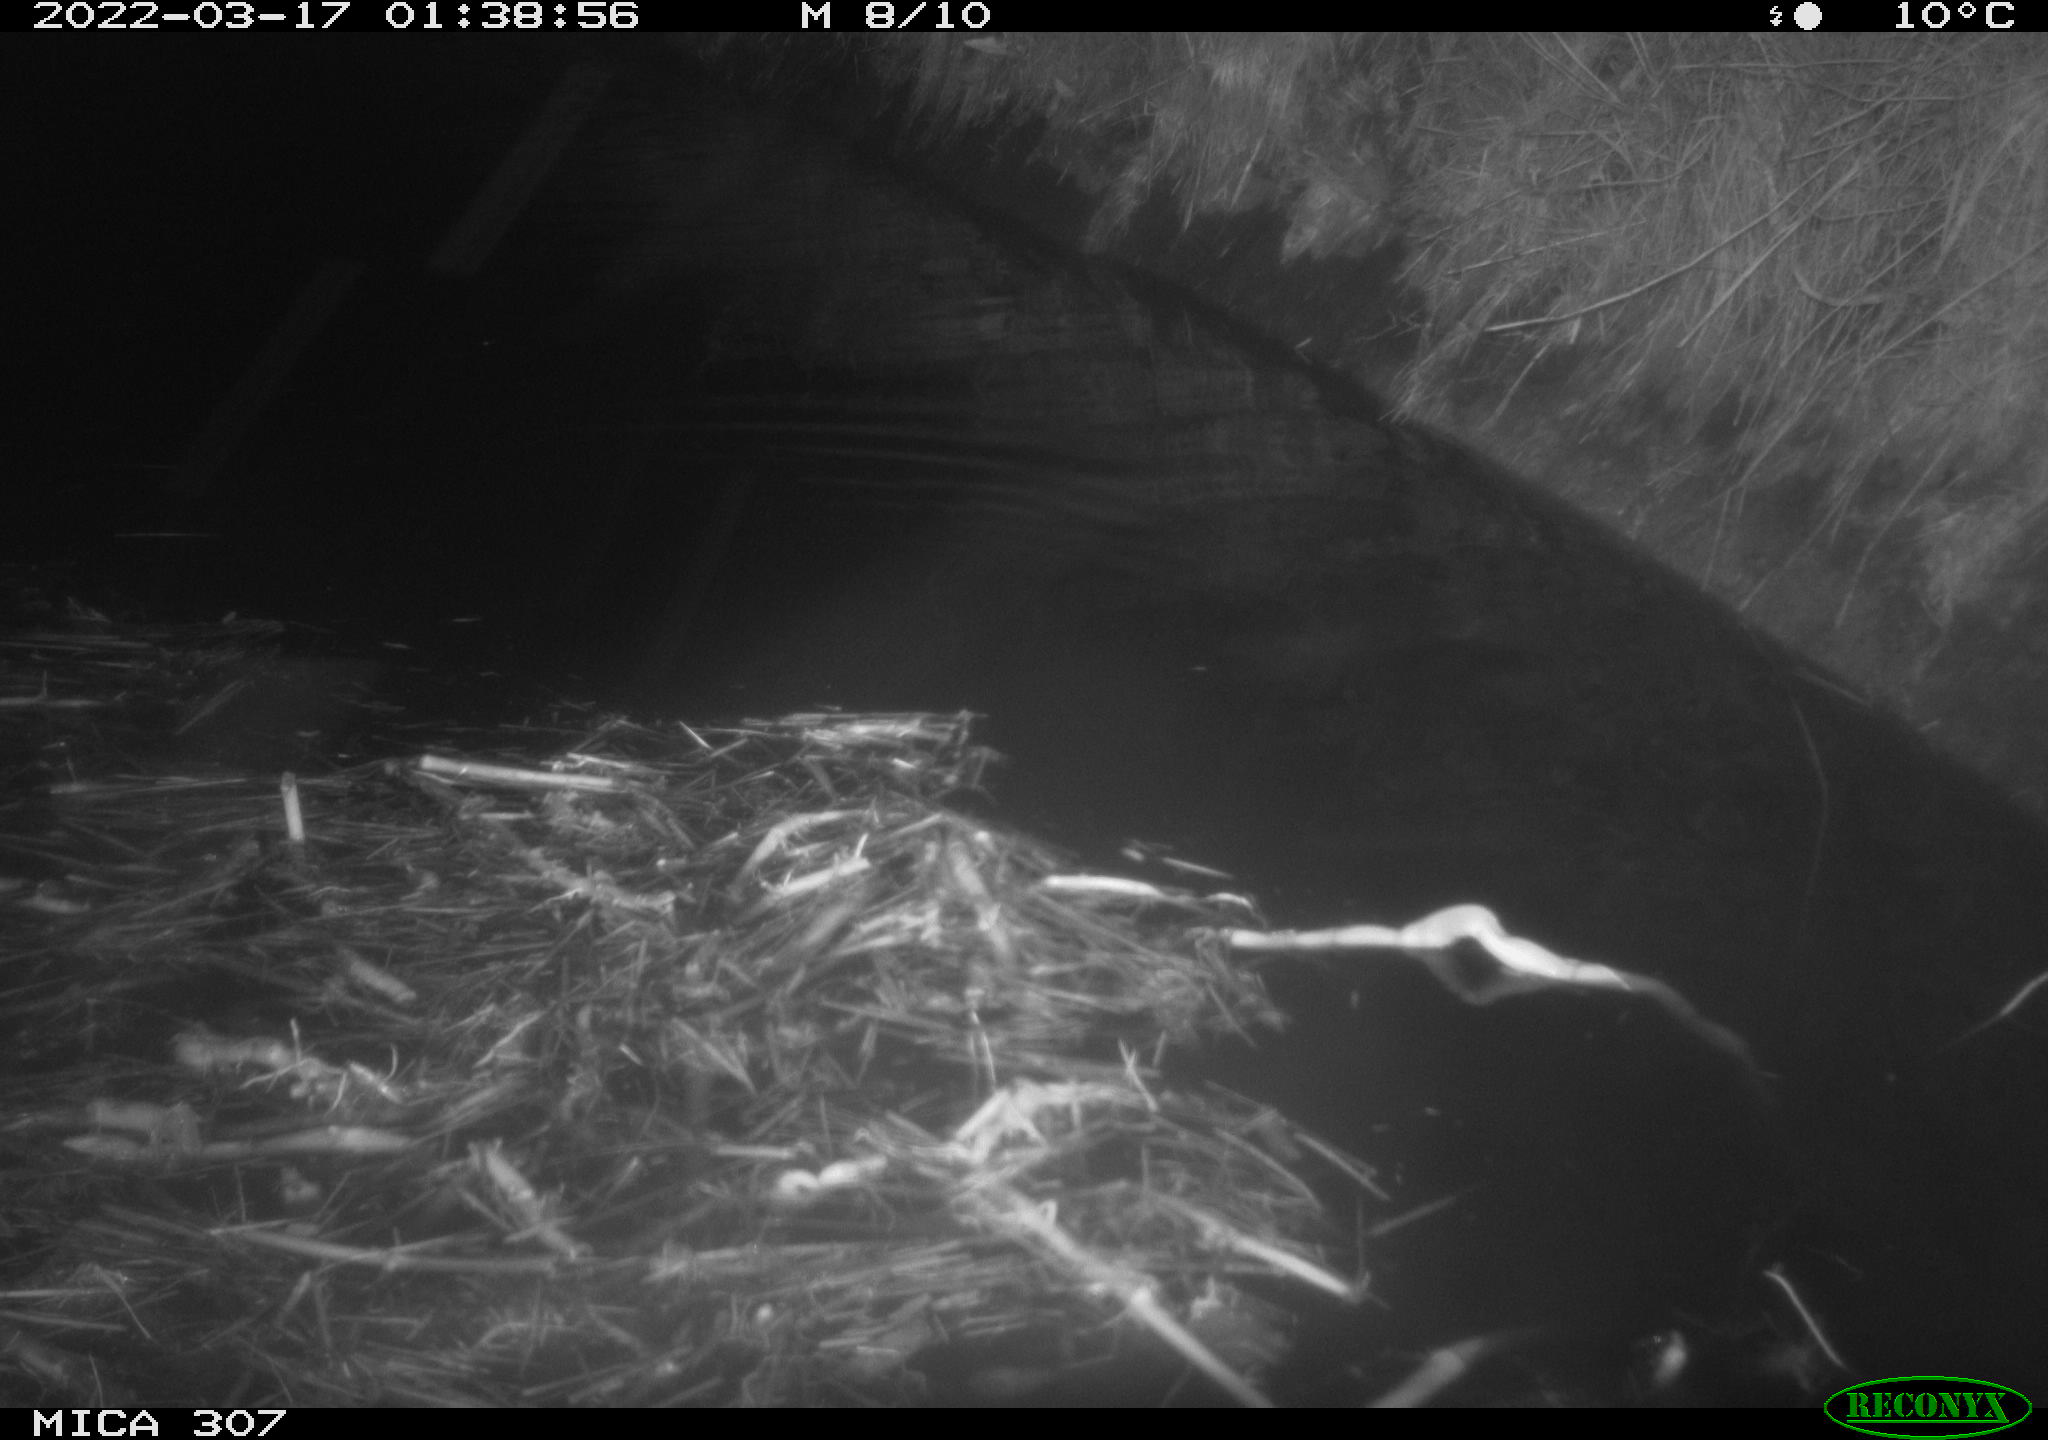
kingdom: Animalia
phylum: Chordata
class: Mammalia
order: Rodentia
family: Muridae
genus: Rattus
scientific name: Rattus norvegicus
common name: Brown rat
